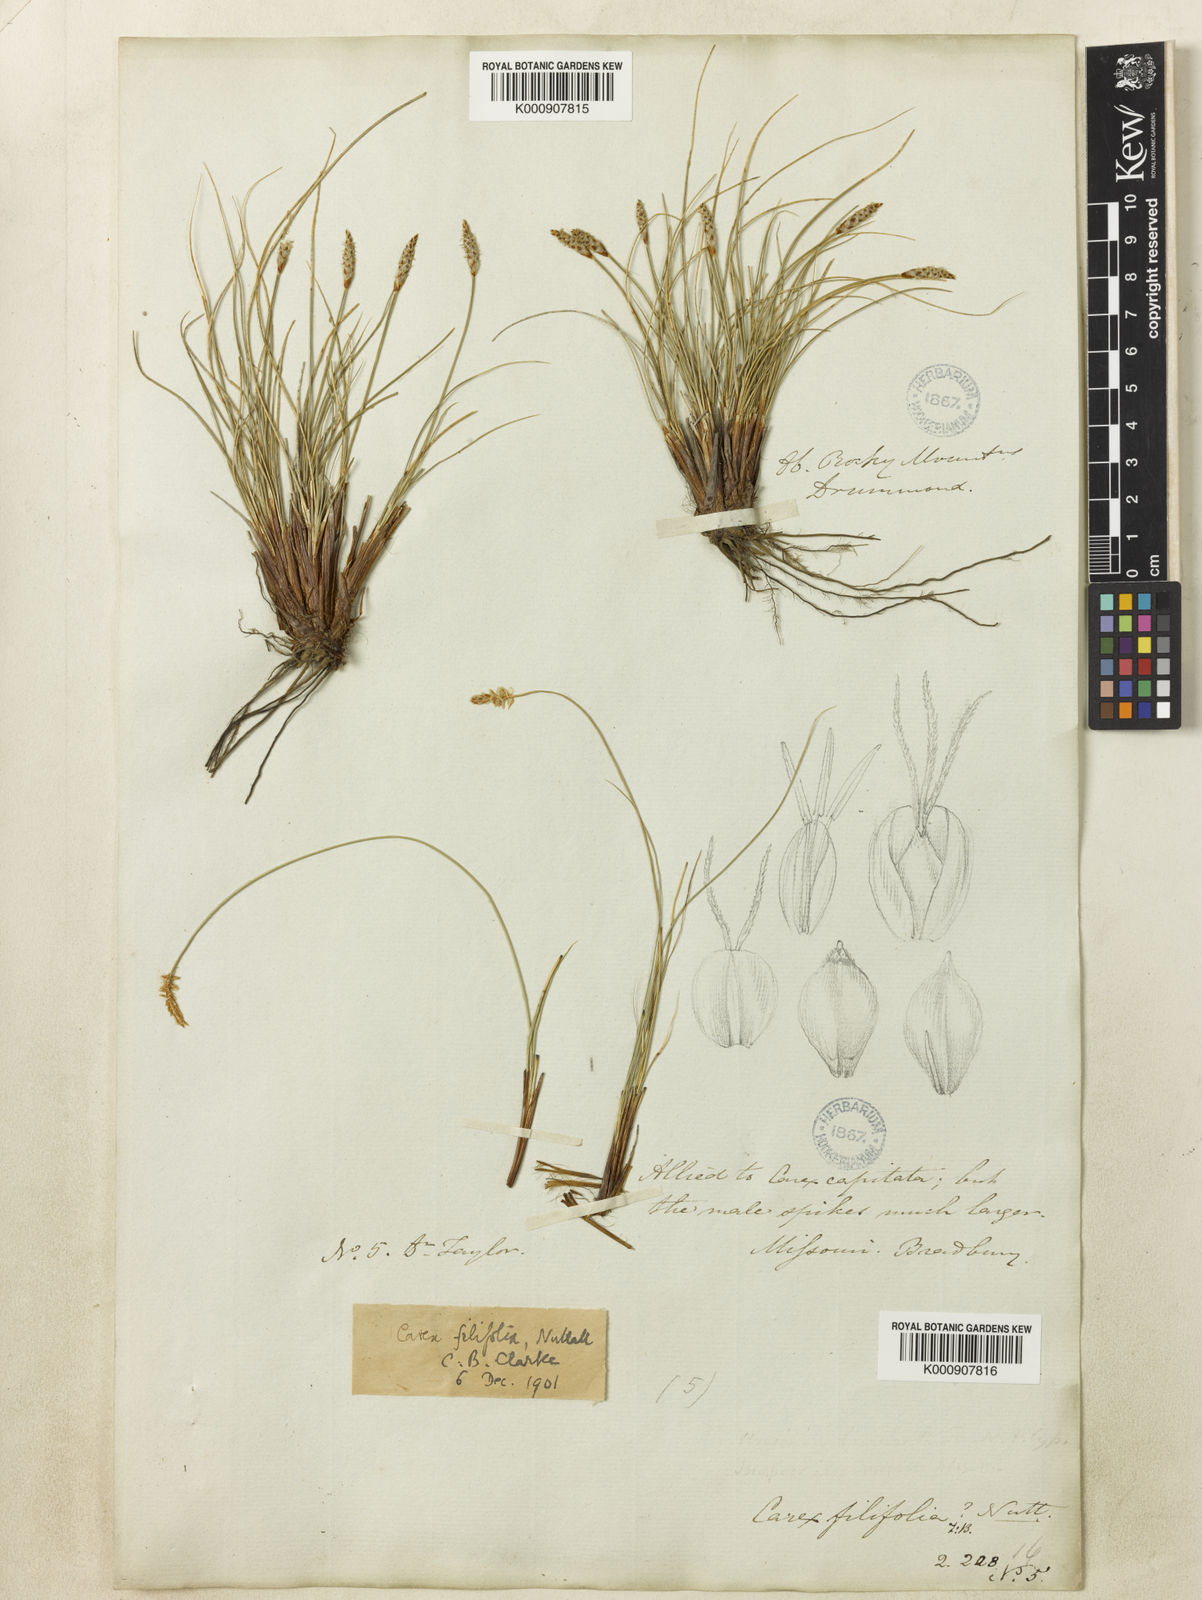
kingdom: Plantae
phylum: Tracheophyta
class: Liliopsida
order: Poales
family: Cyperaceae
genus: Carex
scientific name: Carex filifolia
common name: Threadleaf sedge
